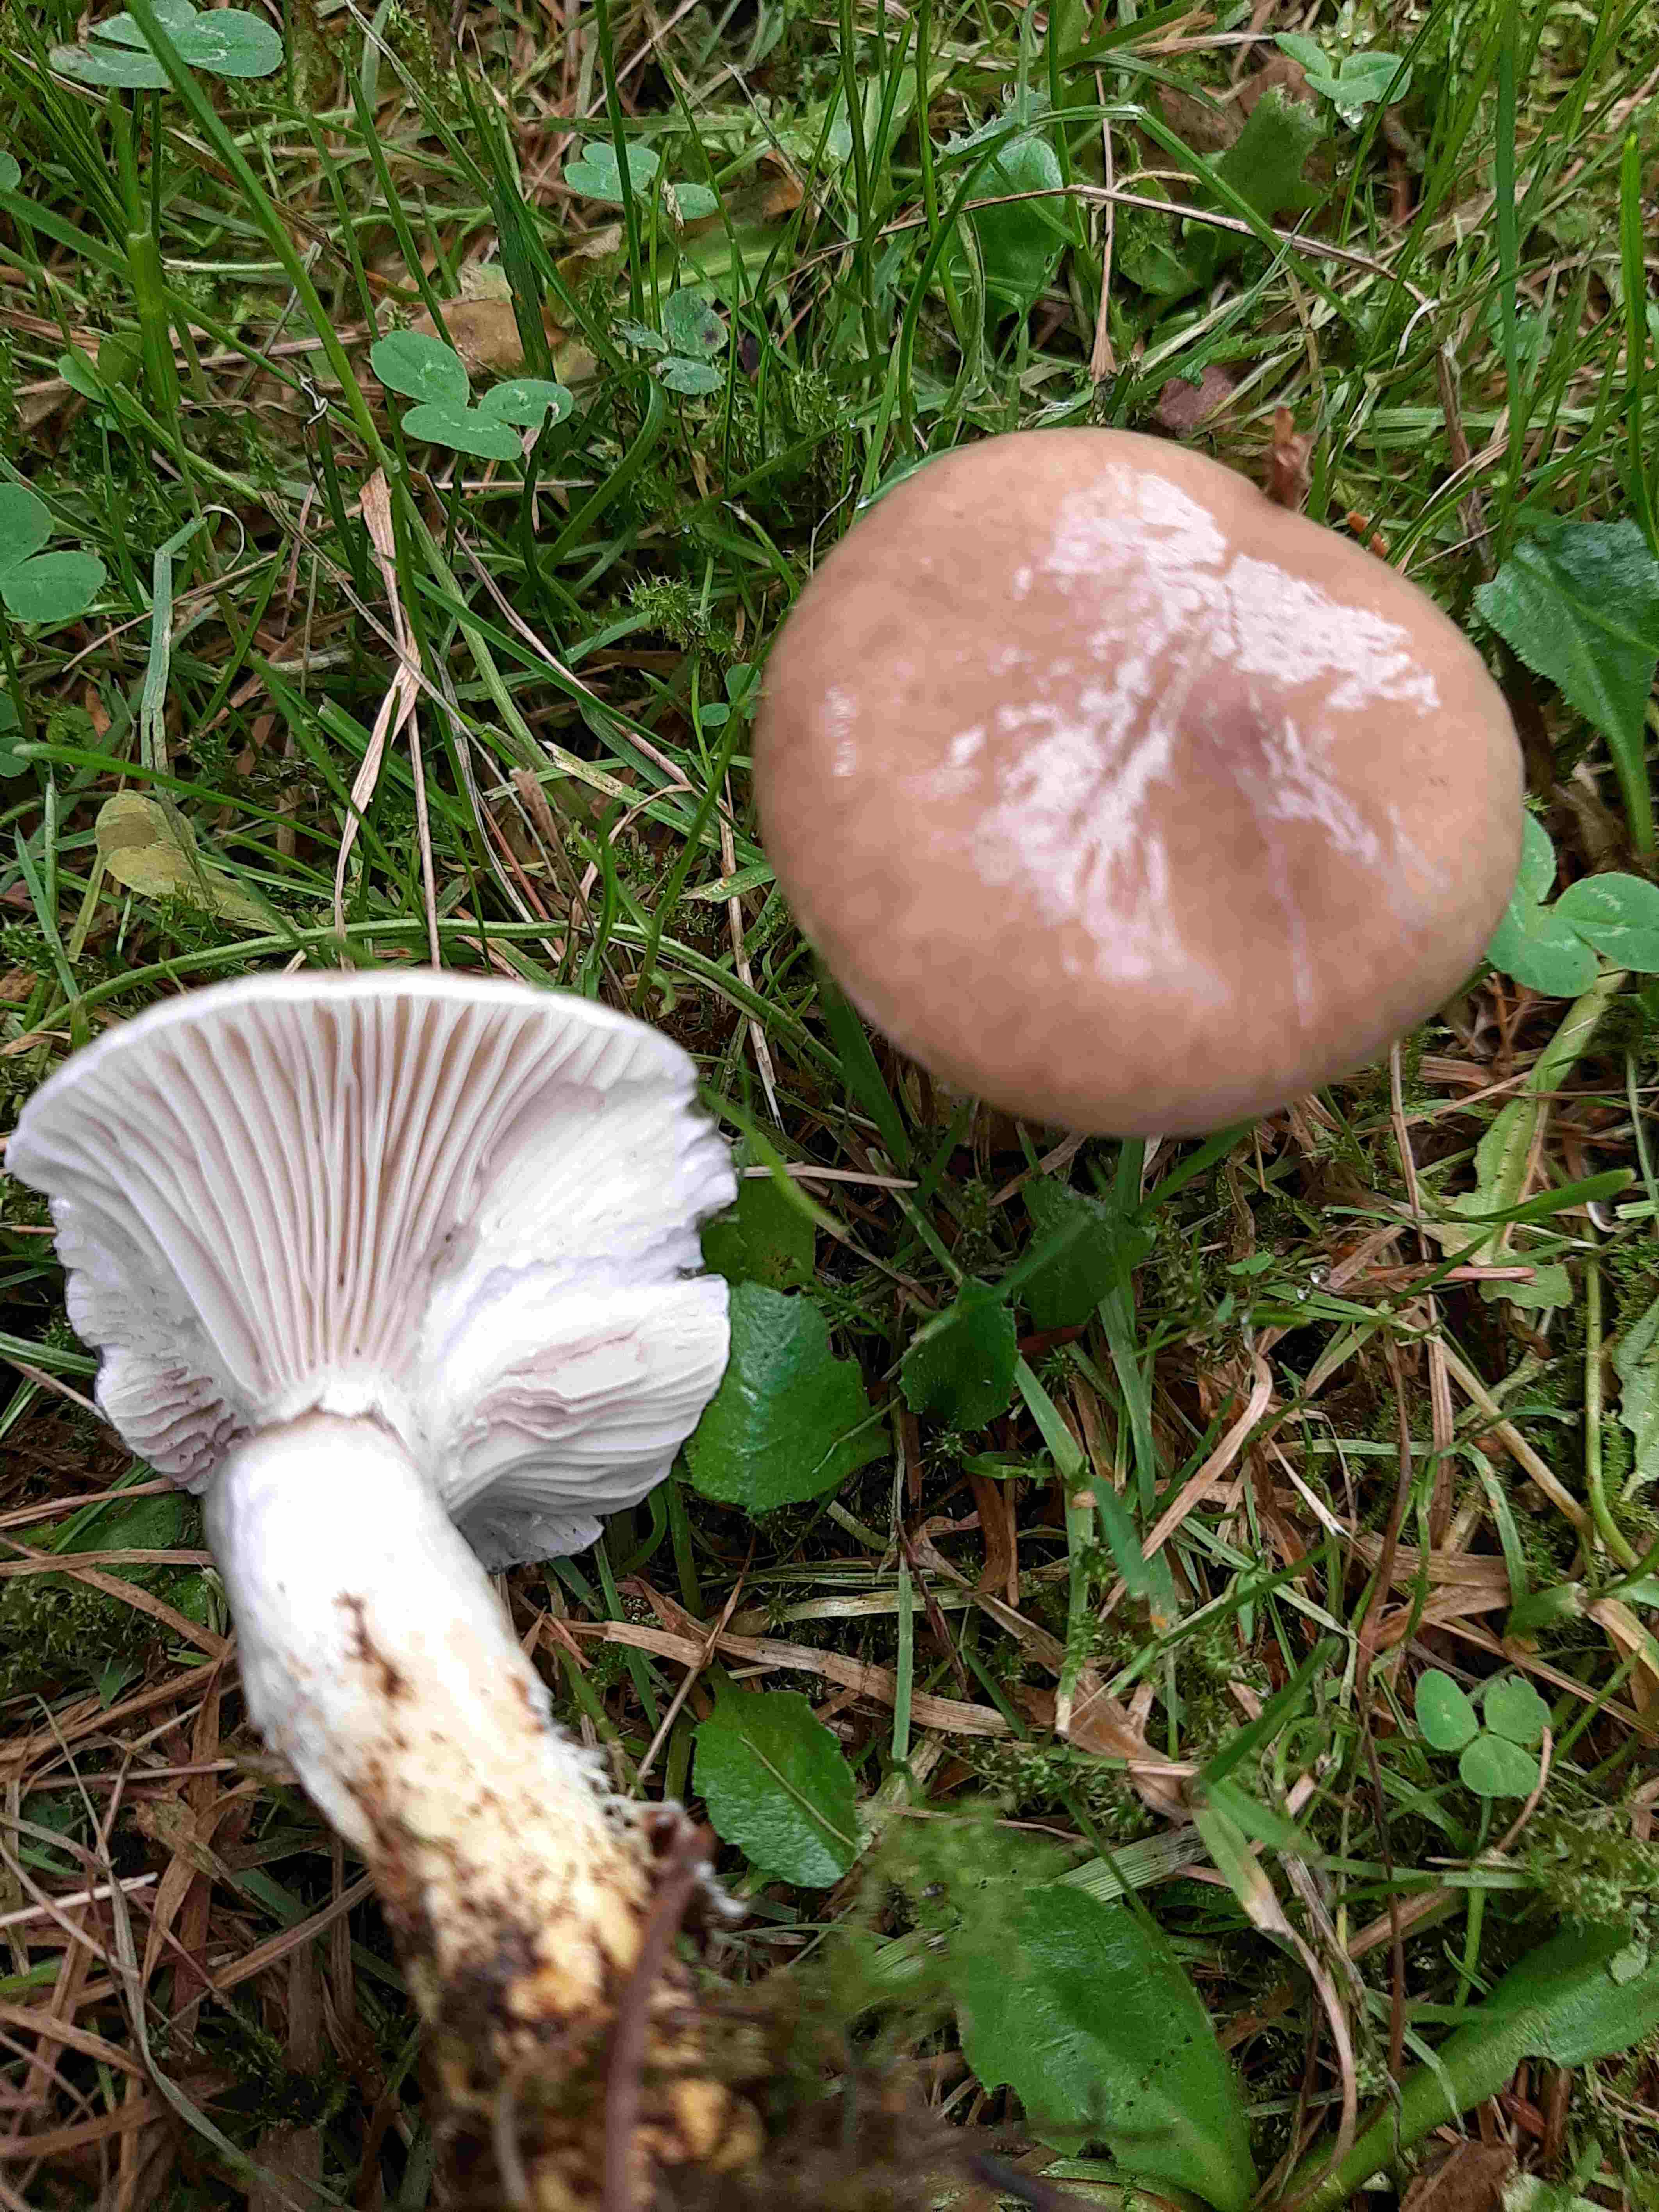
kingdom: Fungi
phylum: Basidiomycota
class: Agaricomycetes
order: Boletales
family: Gomphidiaceae
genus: Gomphidius
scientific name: Gomphidius glutinosus
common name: grå slimslør
